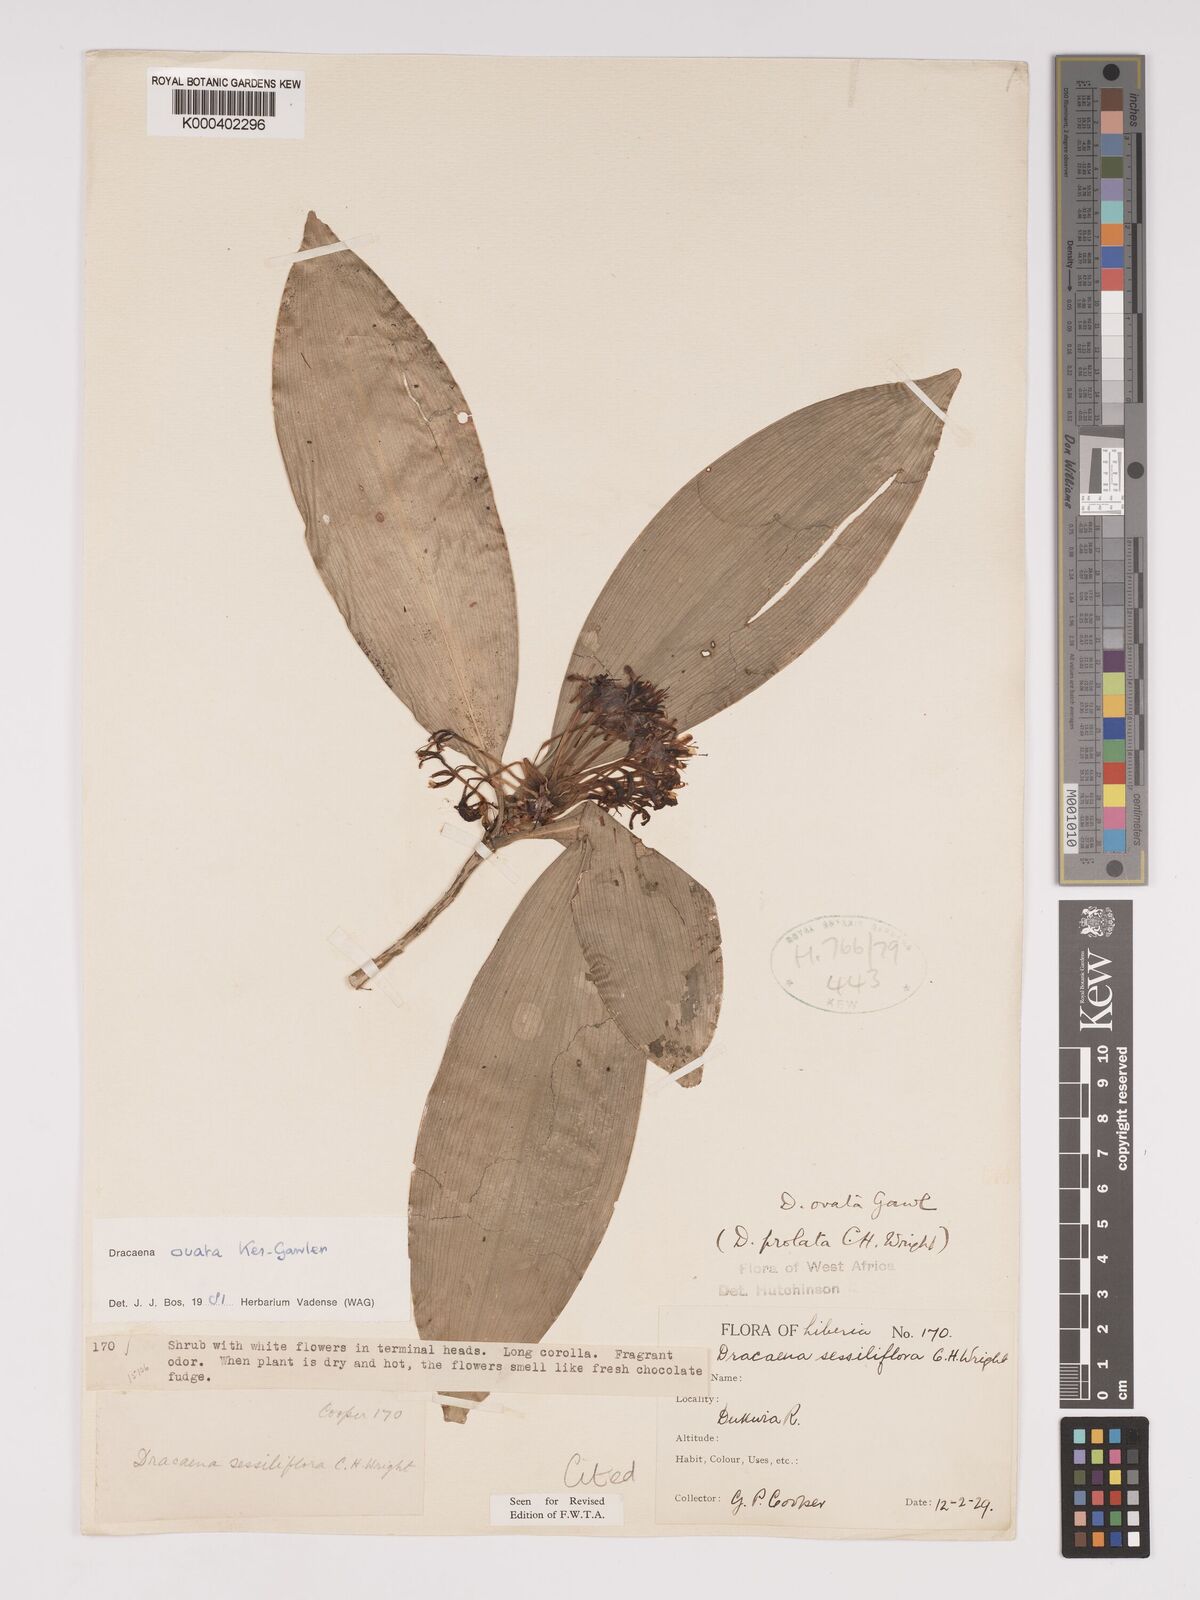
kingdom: Plantae
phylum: Tracheophyta
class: Liliopsida
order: Asparagales
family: Asparagaceae
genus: Dracaena
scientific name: Dracaena ovata
